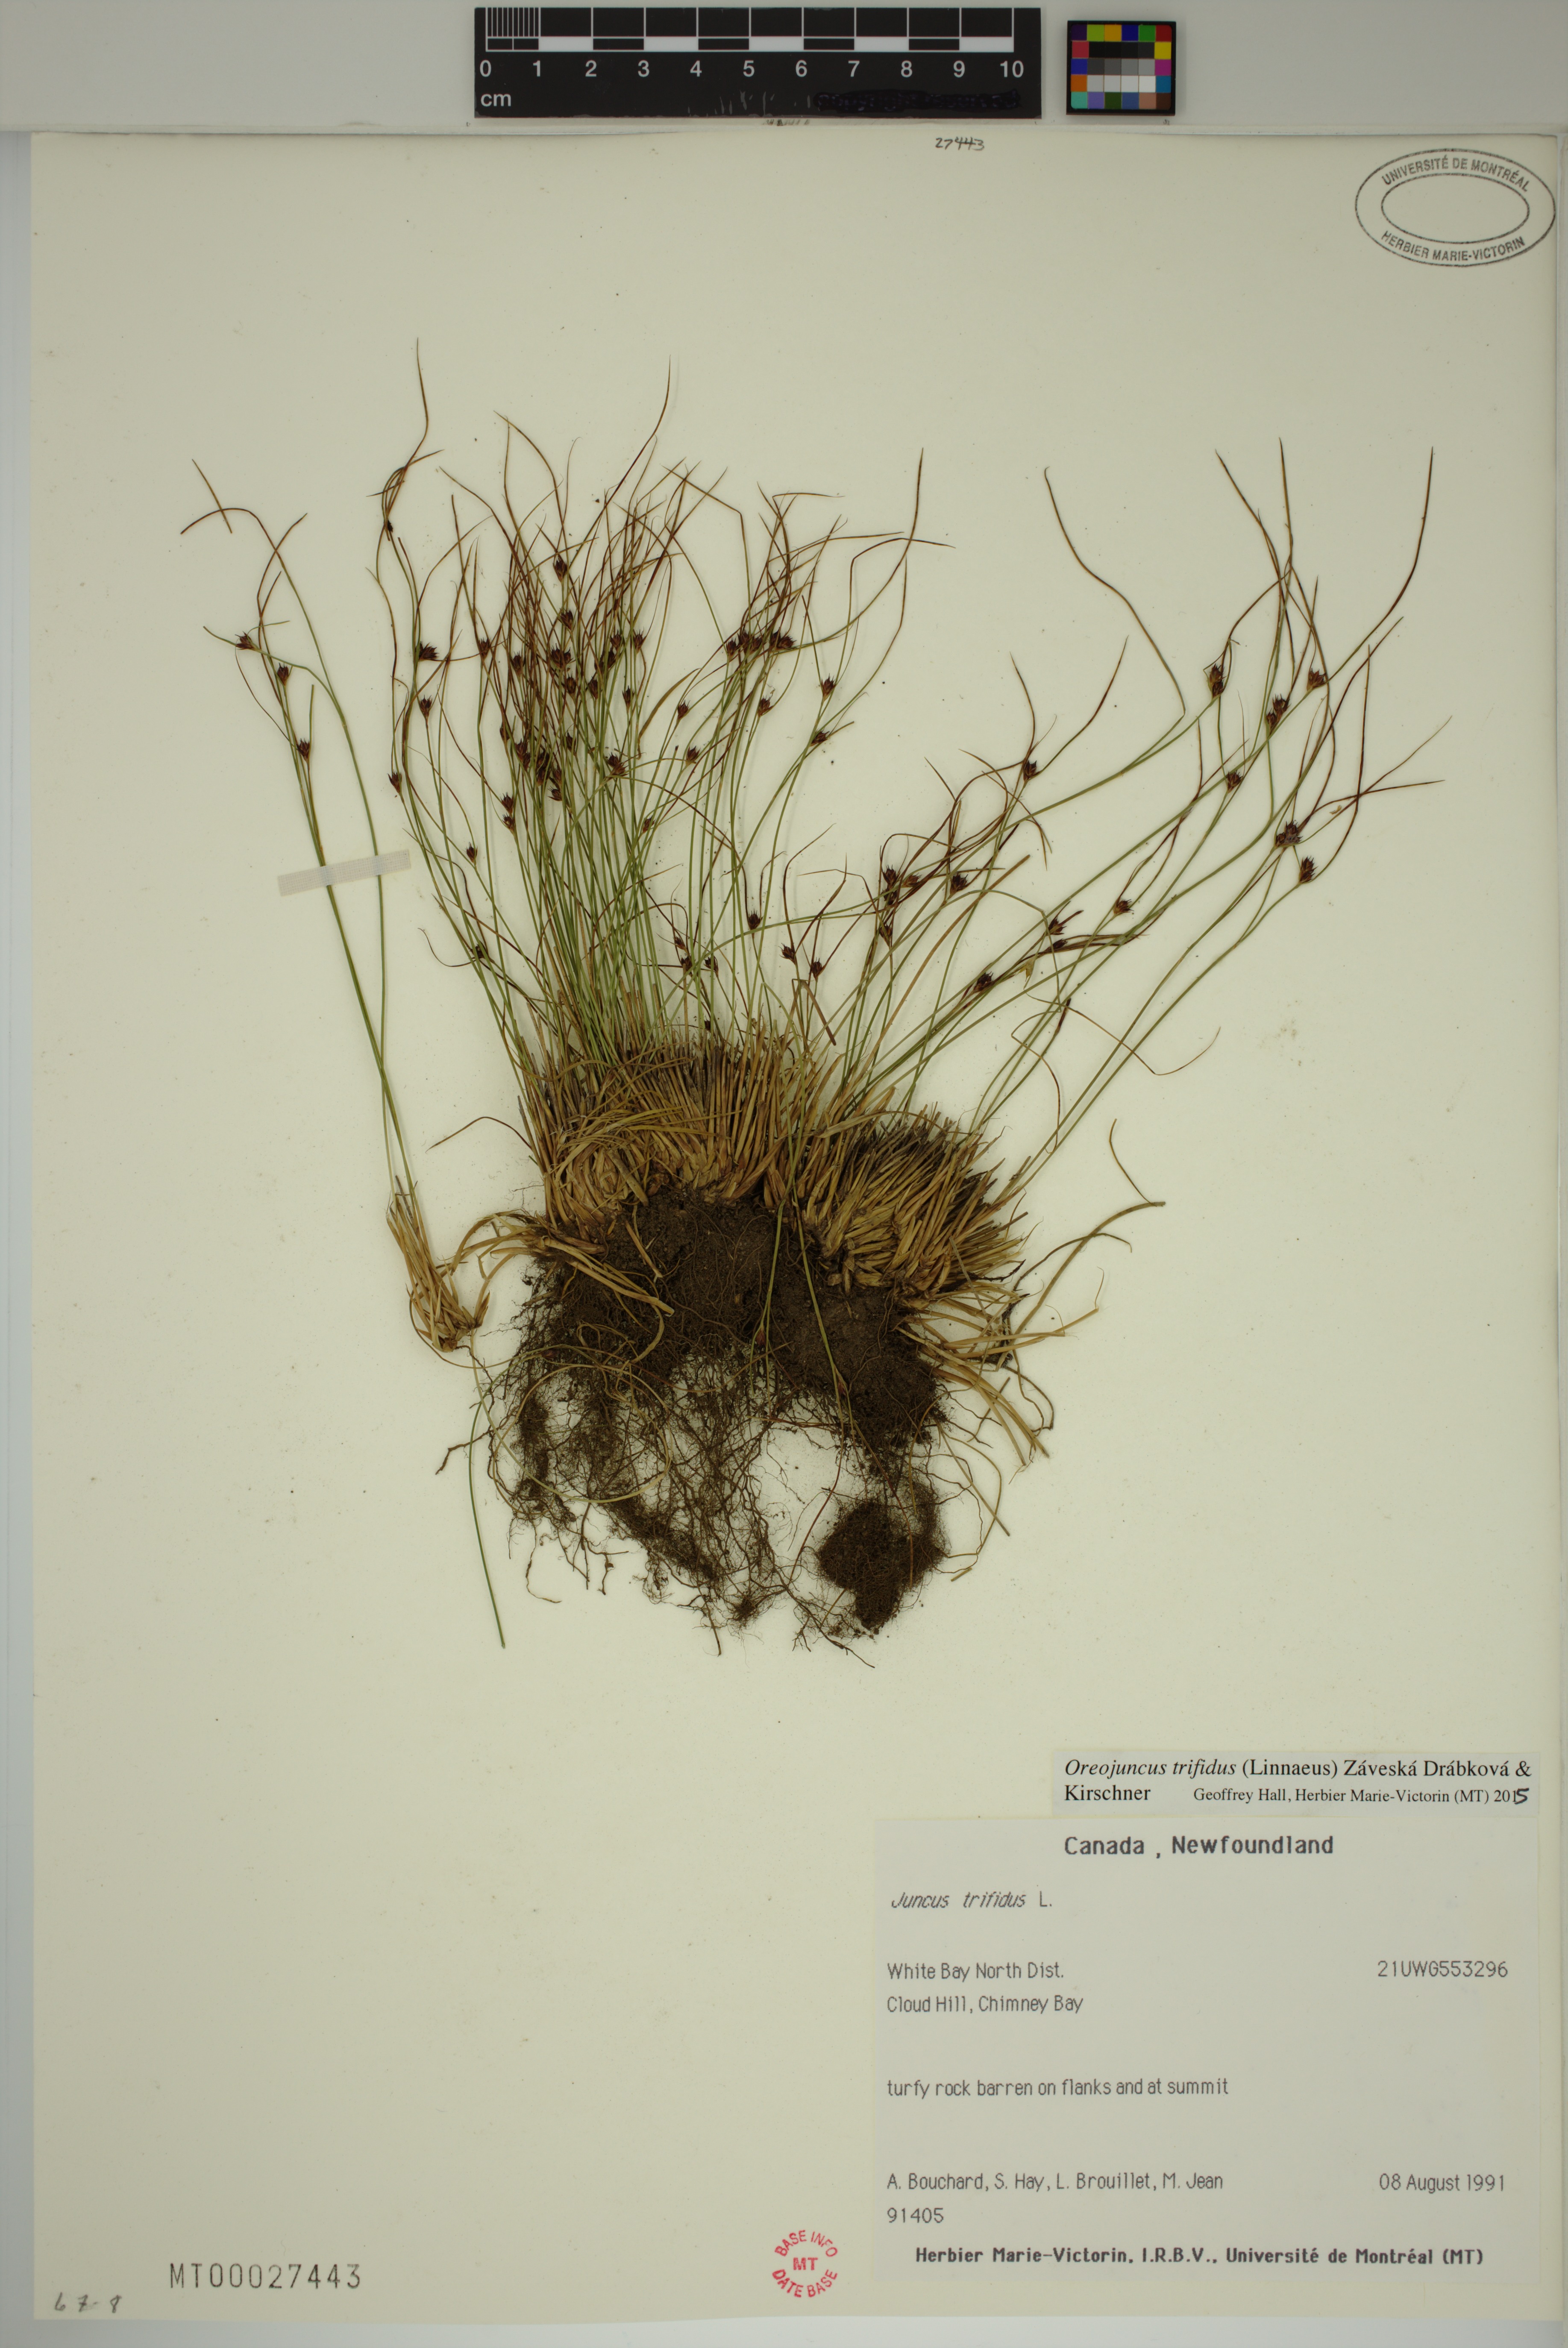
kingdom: Plantae
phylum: Tracheophyta
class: Liliopsida
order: Poales
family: Juncaceae
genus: Oreojuncus
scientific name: Oreojuncus trifidus
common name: Highland rush
